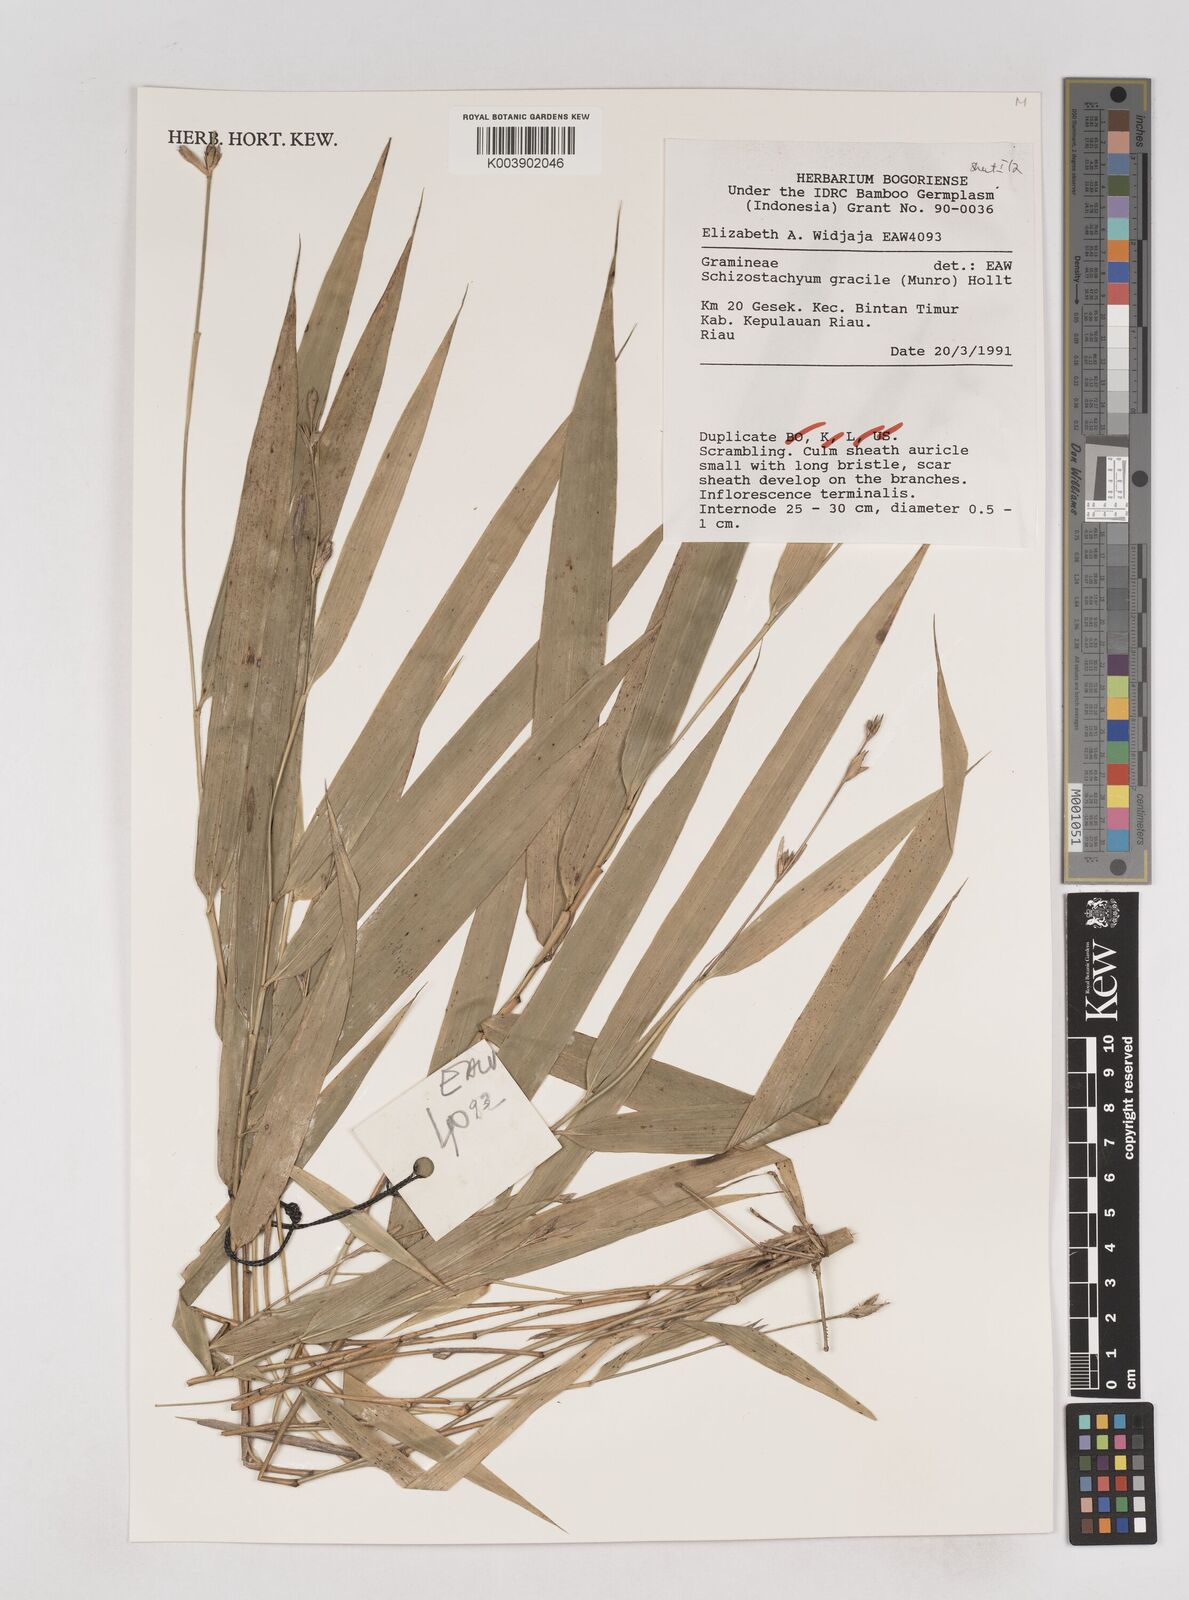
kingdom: Plantae
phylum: Tracheophyta
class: Liliopsida
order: Poales
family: Poaceae
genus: Schizostachyum
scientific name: Schizostachyum gracile
